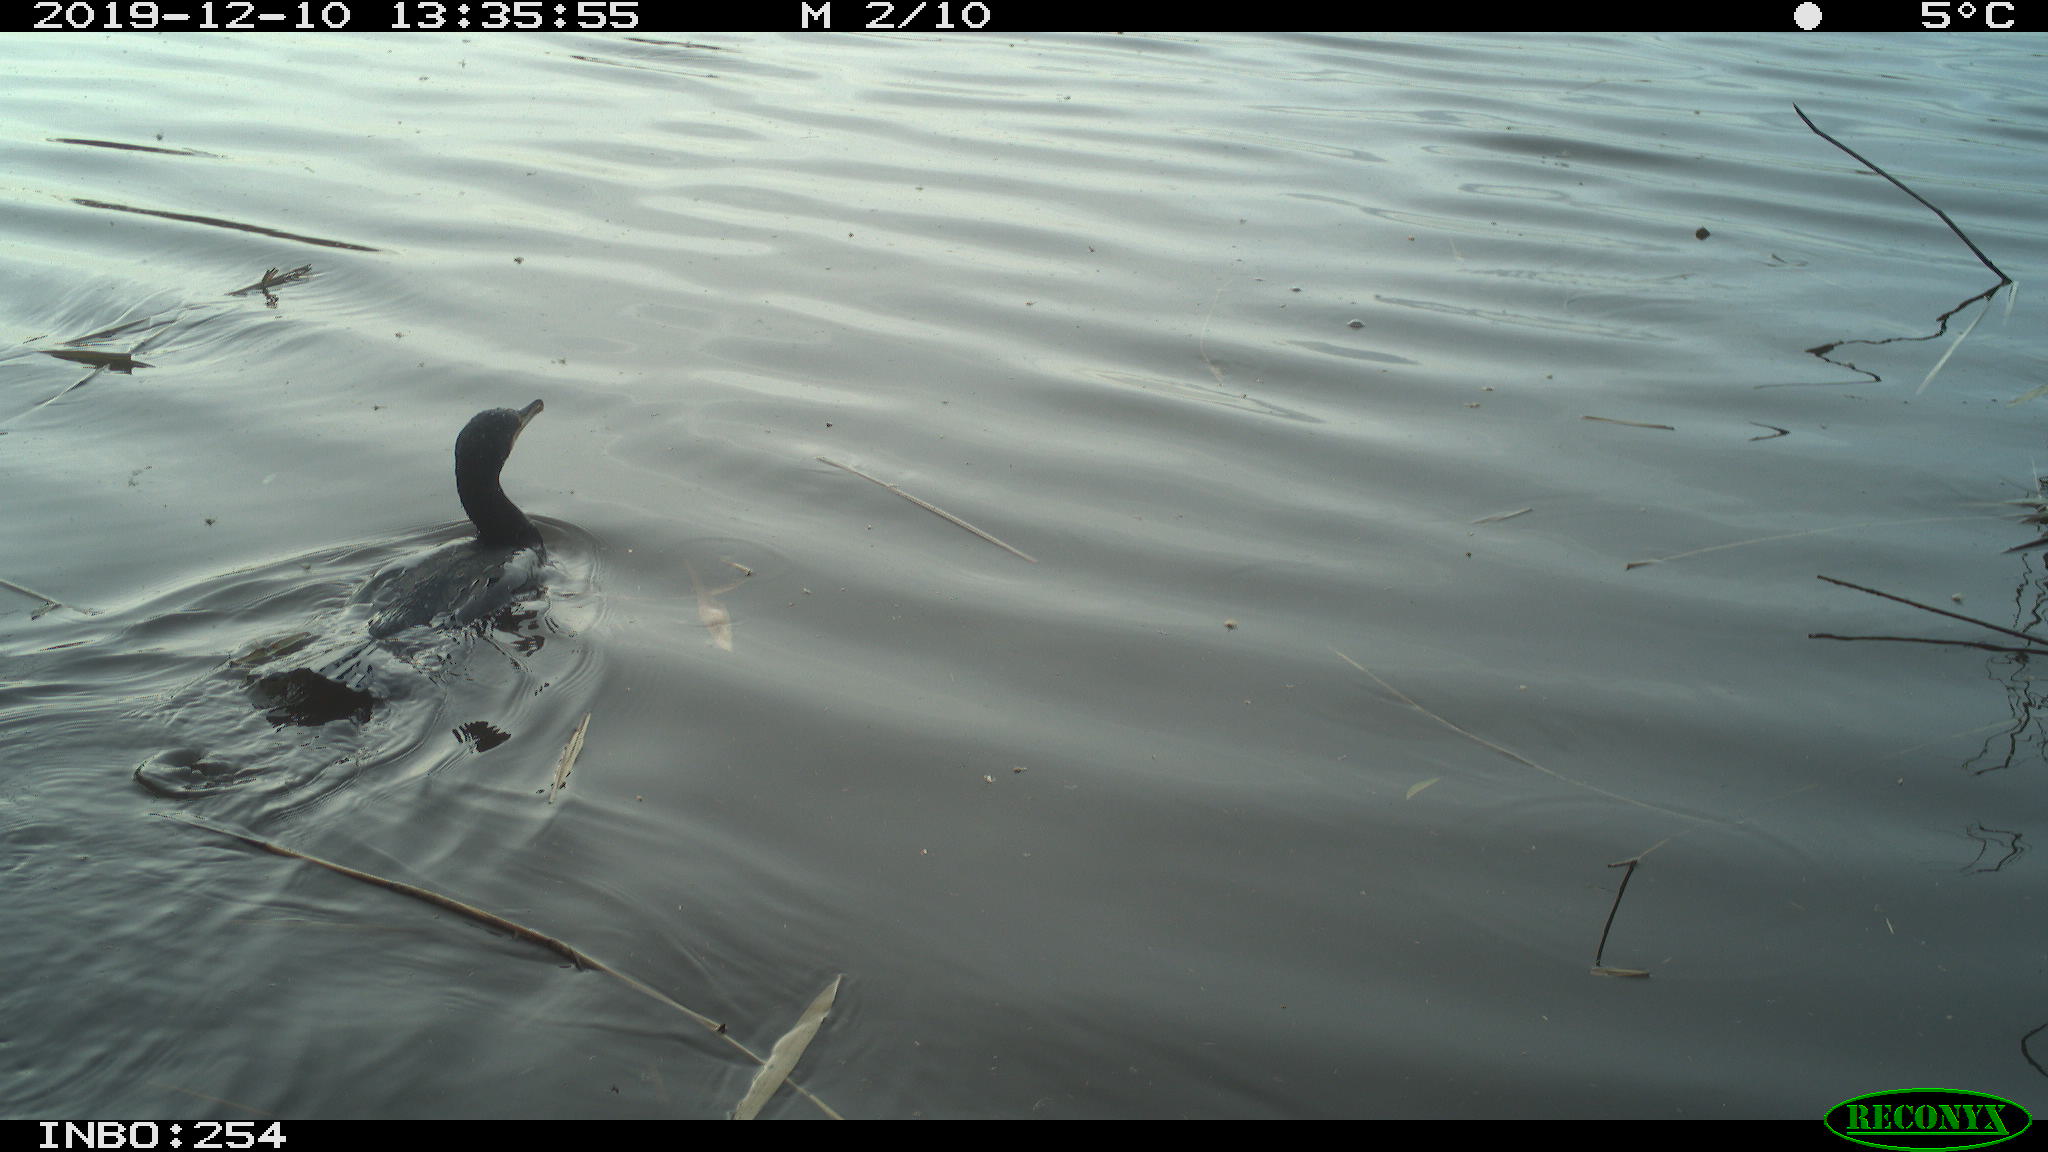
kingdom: Animalia
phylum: Chordata
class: Aves
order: Suliformes
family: Phalacrocoracidae
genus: Phalacrocorax
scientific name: Phalacrocorax carbo
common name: Great cormorant
